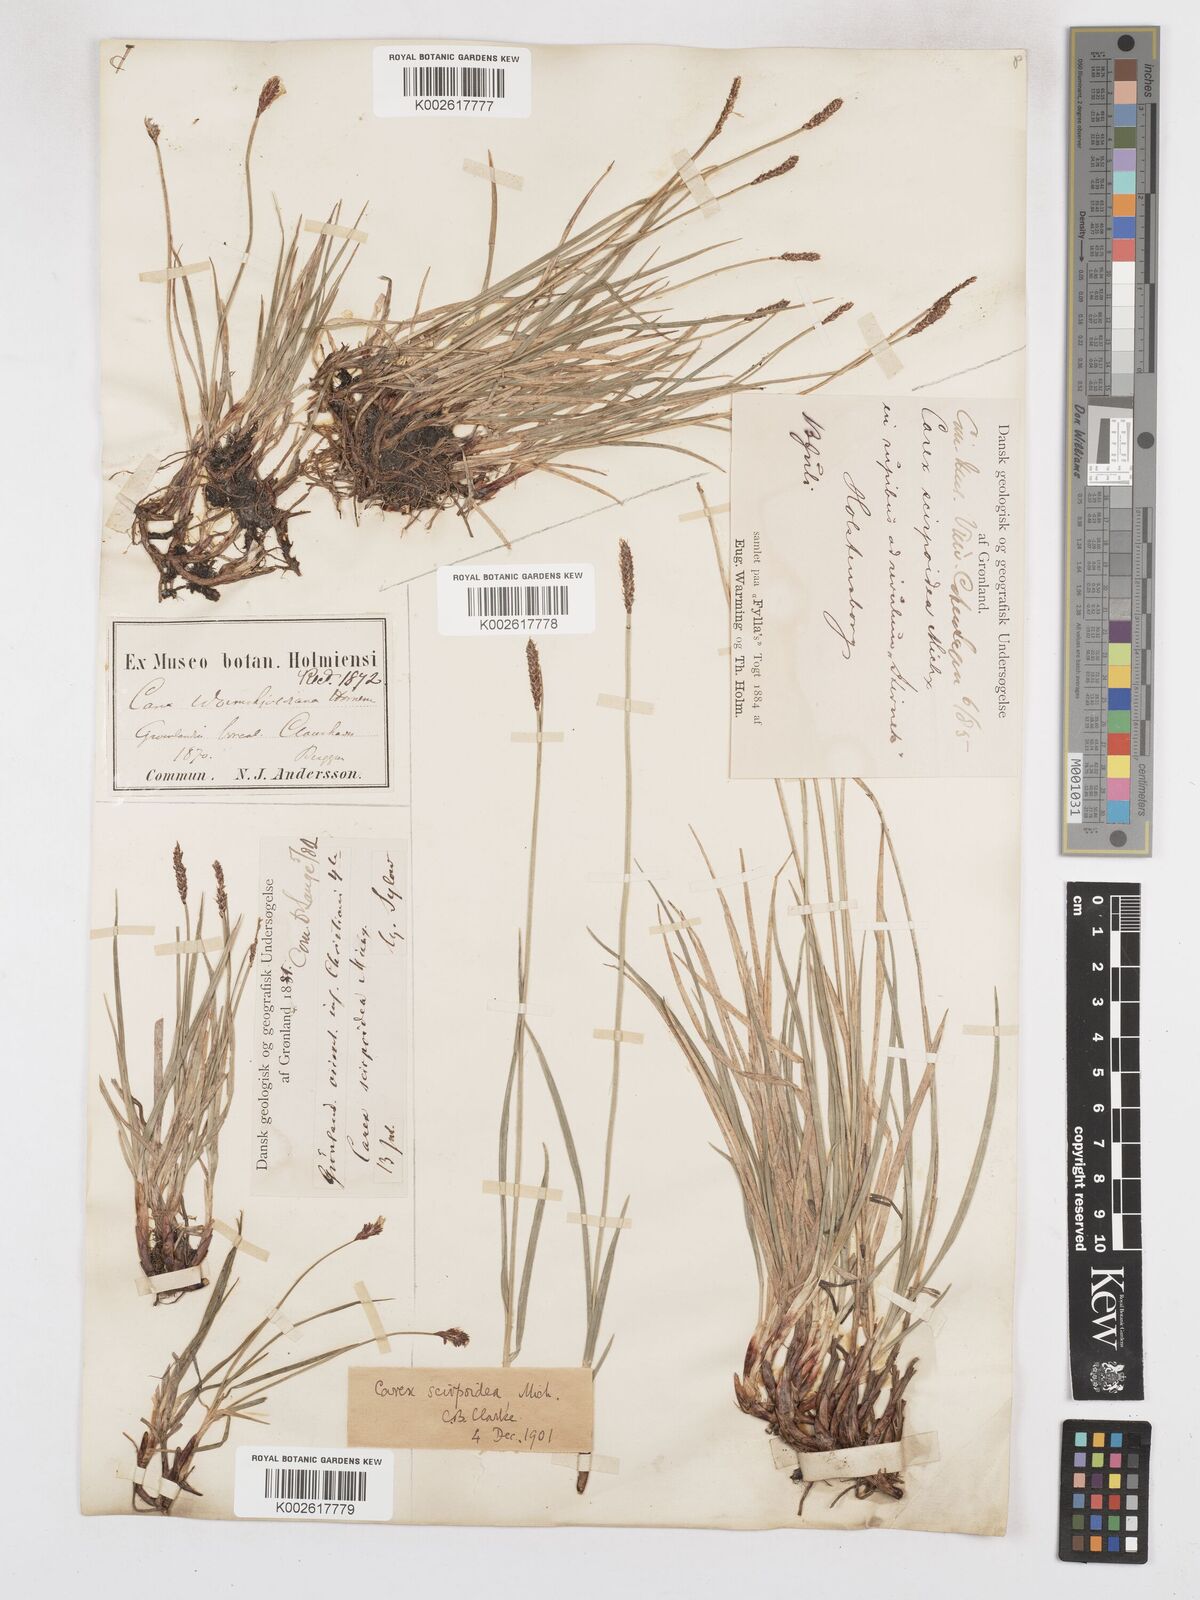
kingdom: Plantae
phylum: Tracheophyta
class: Liliopsida
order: Poales
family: Cyperaceae
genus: Carex
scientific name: Carex scirpoidea
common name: Canada single-spike sedge
